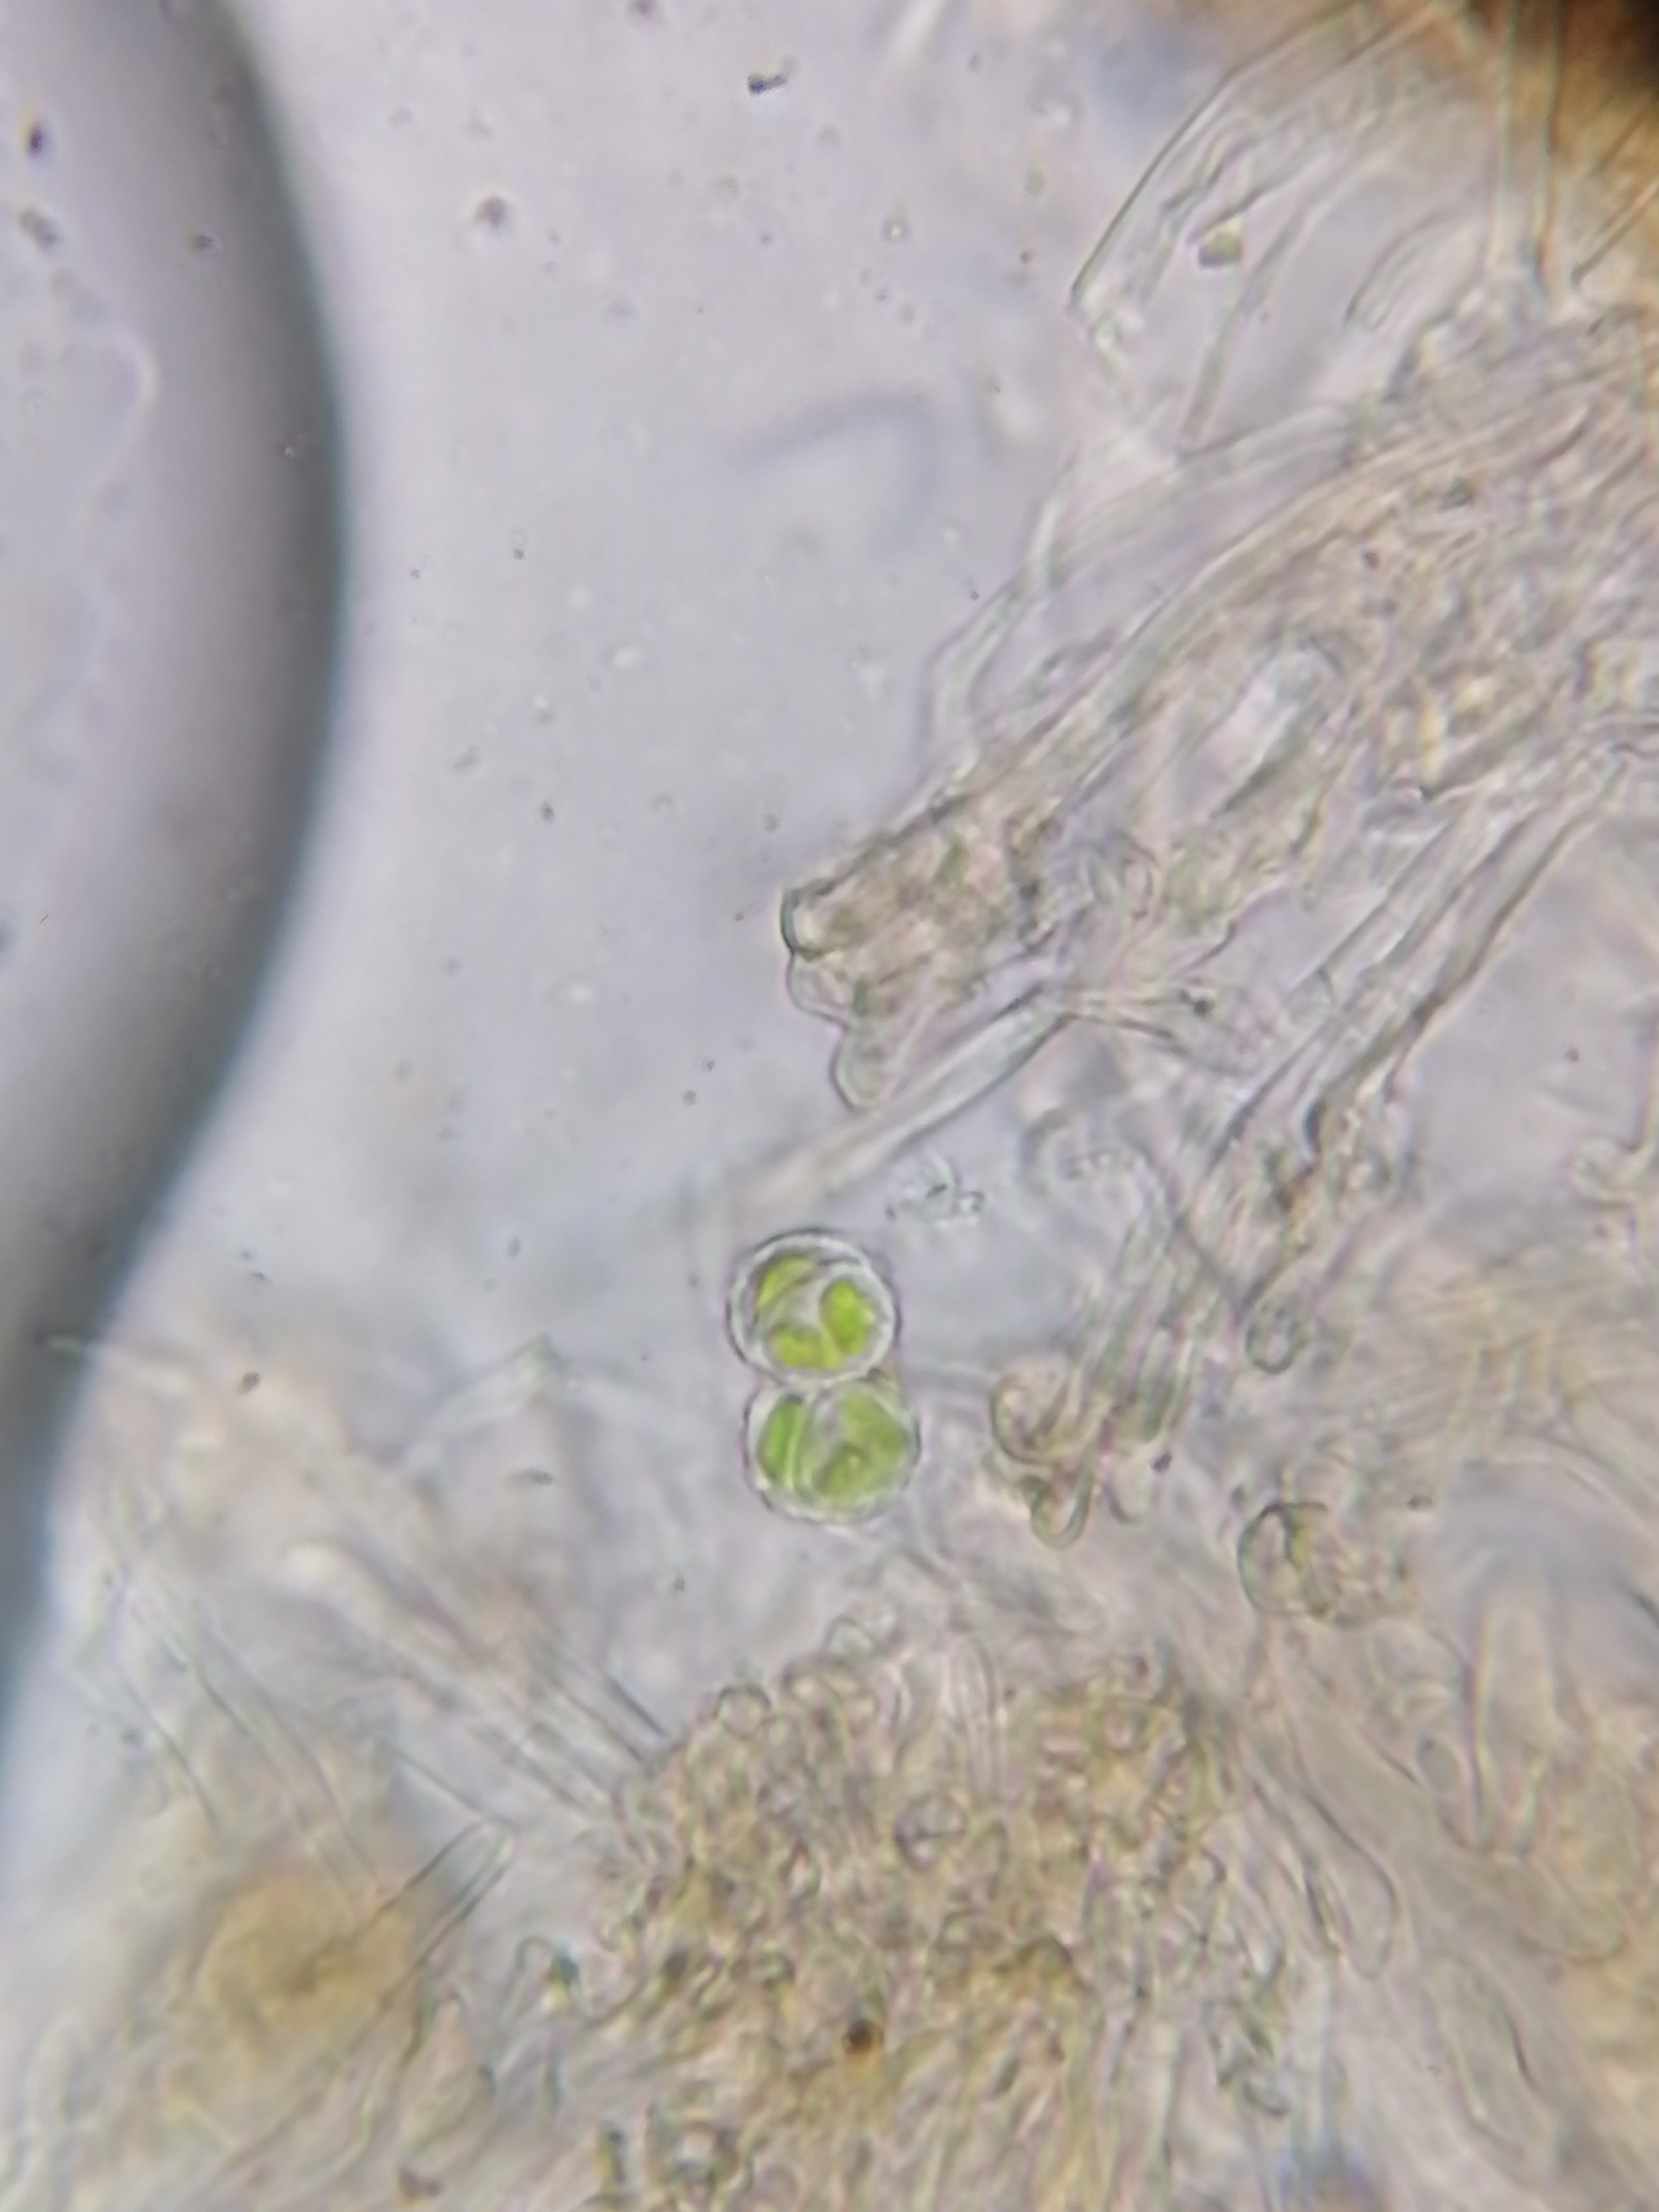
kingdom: Fungi
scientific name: Fungi
